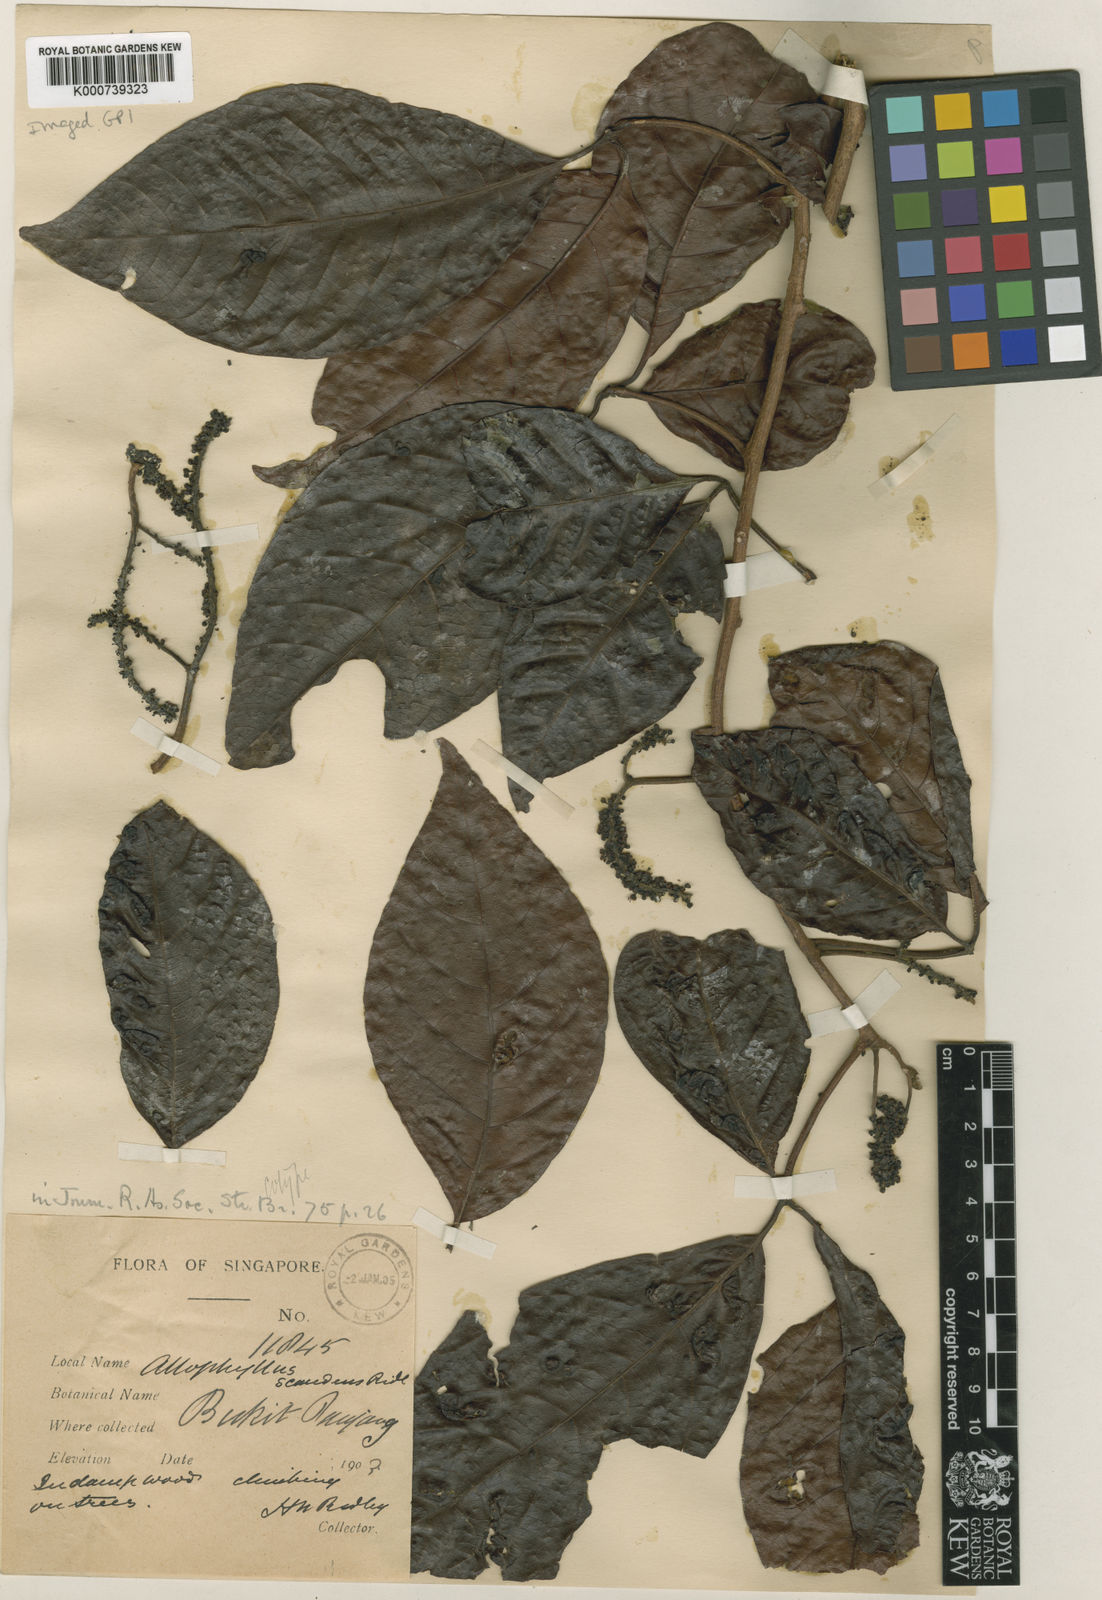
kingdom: Plantae
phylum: Tracheophyta
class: Magnoliopsida
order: Sapindales
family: Sapindaceae
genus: Allophylus
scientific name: Allophylus scandens
